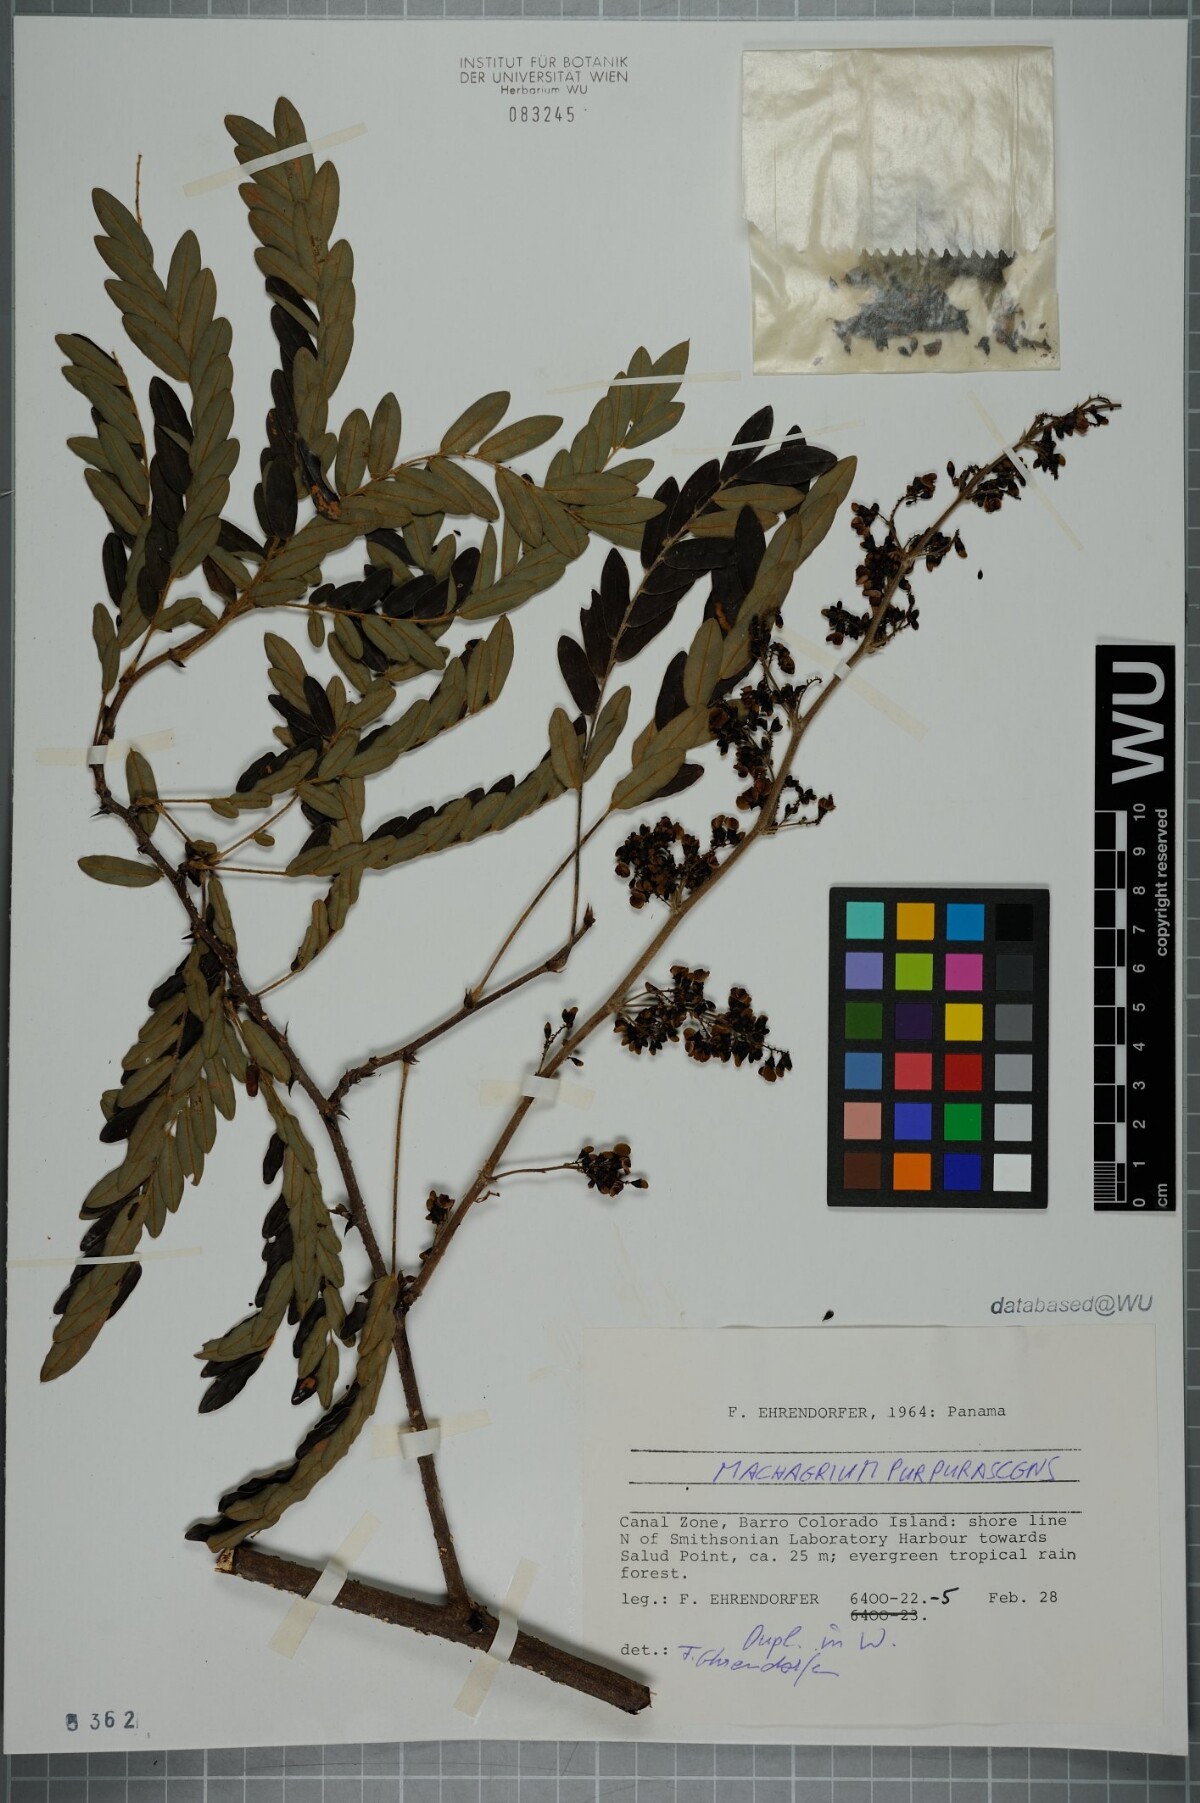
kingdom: Plantae
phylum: Tracheophyta
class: Magnoliopsida
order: Fabales
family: Fabaceae
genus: Machaerium
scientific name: Machaerium milleflorum
